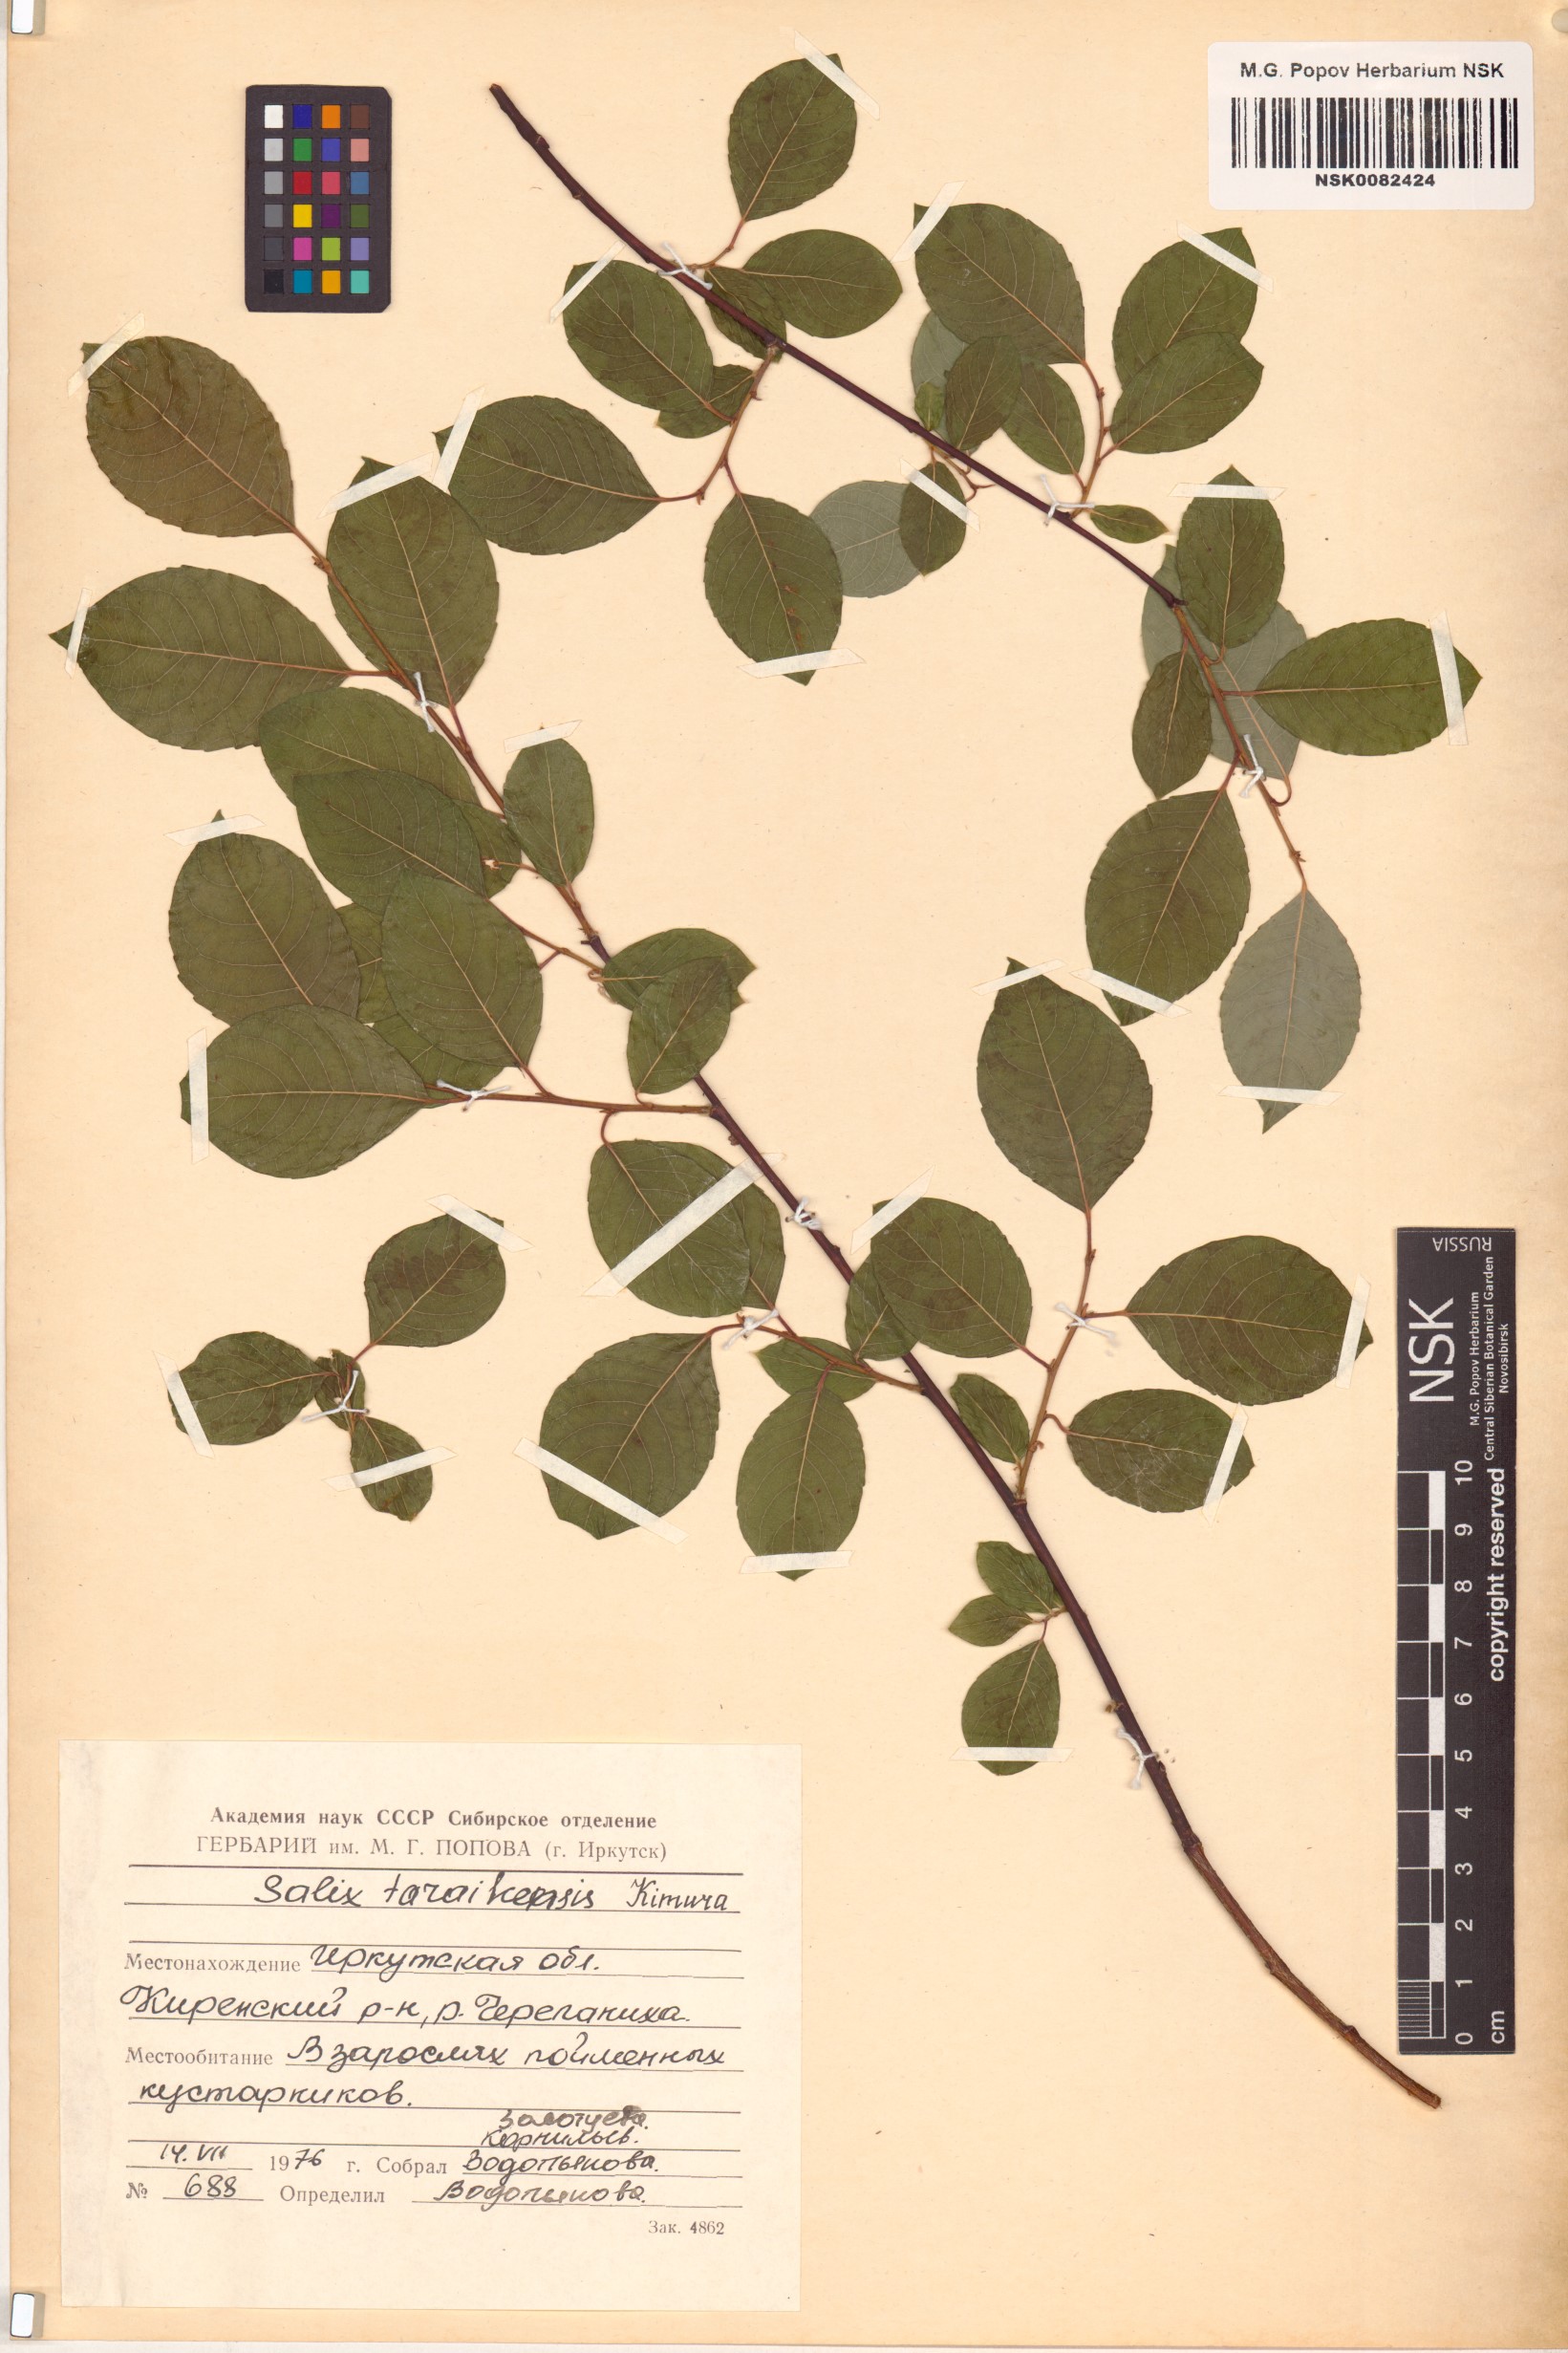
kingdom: Plantae
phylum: Tracheophyta
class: Magnoliopsida
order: Malpighiales
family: Salicaceae
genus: Salix
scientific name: Salix taraikensis
